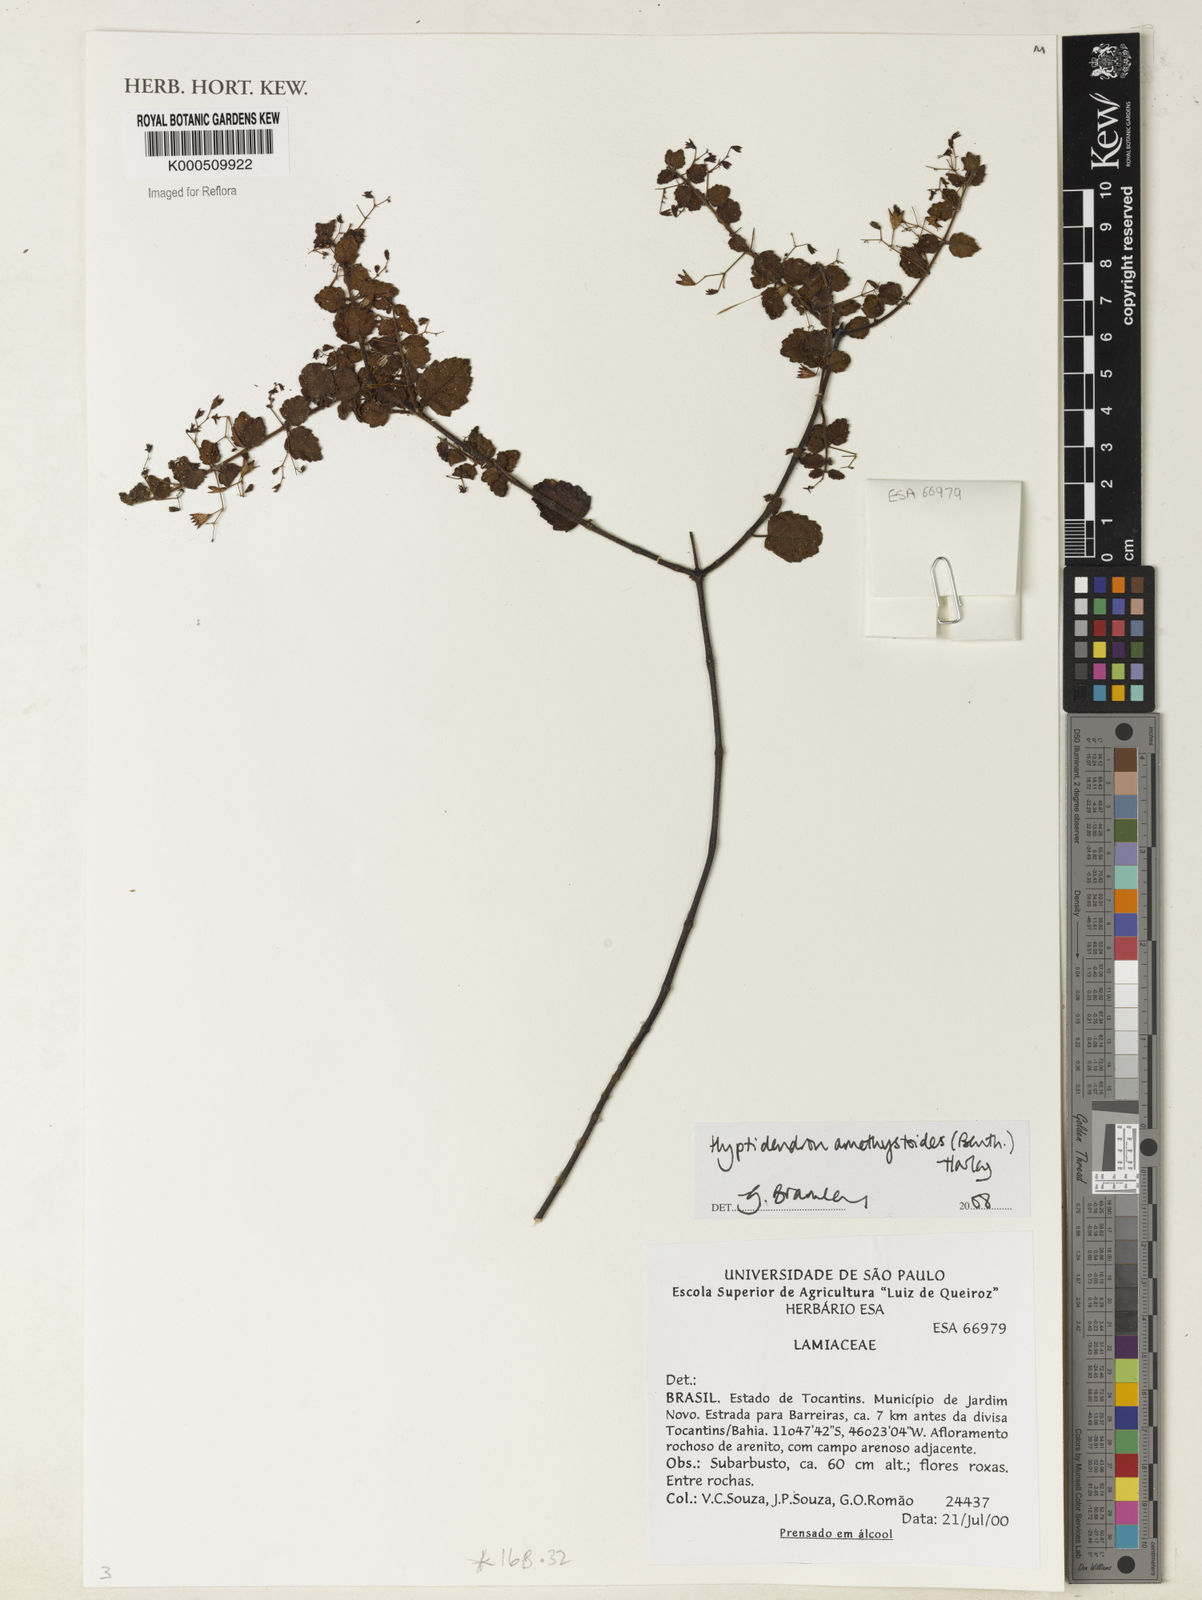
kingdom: Plantae
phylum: Tracheophyta
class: Magnoliopsida
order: Lamiales
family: Lamiaceae
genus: Hyptidendron
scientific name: Hyptidendron amethystoides
